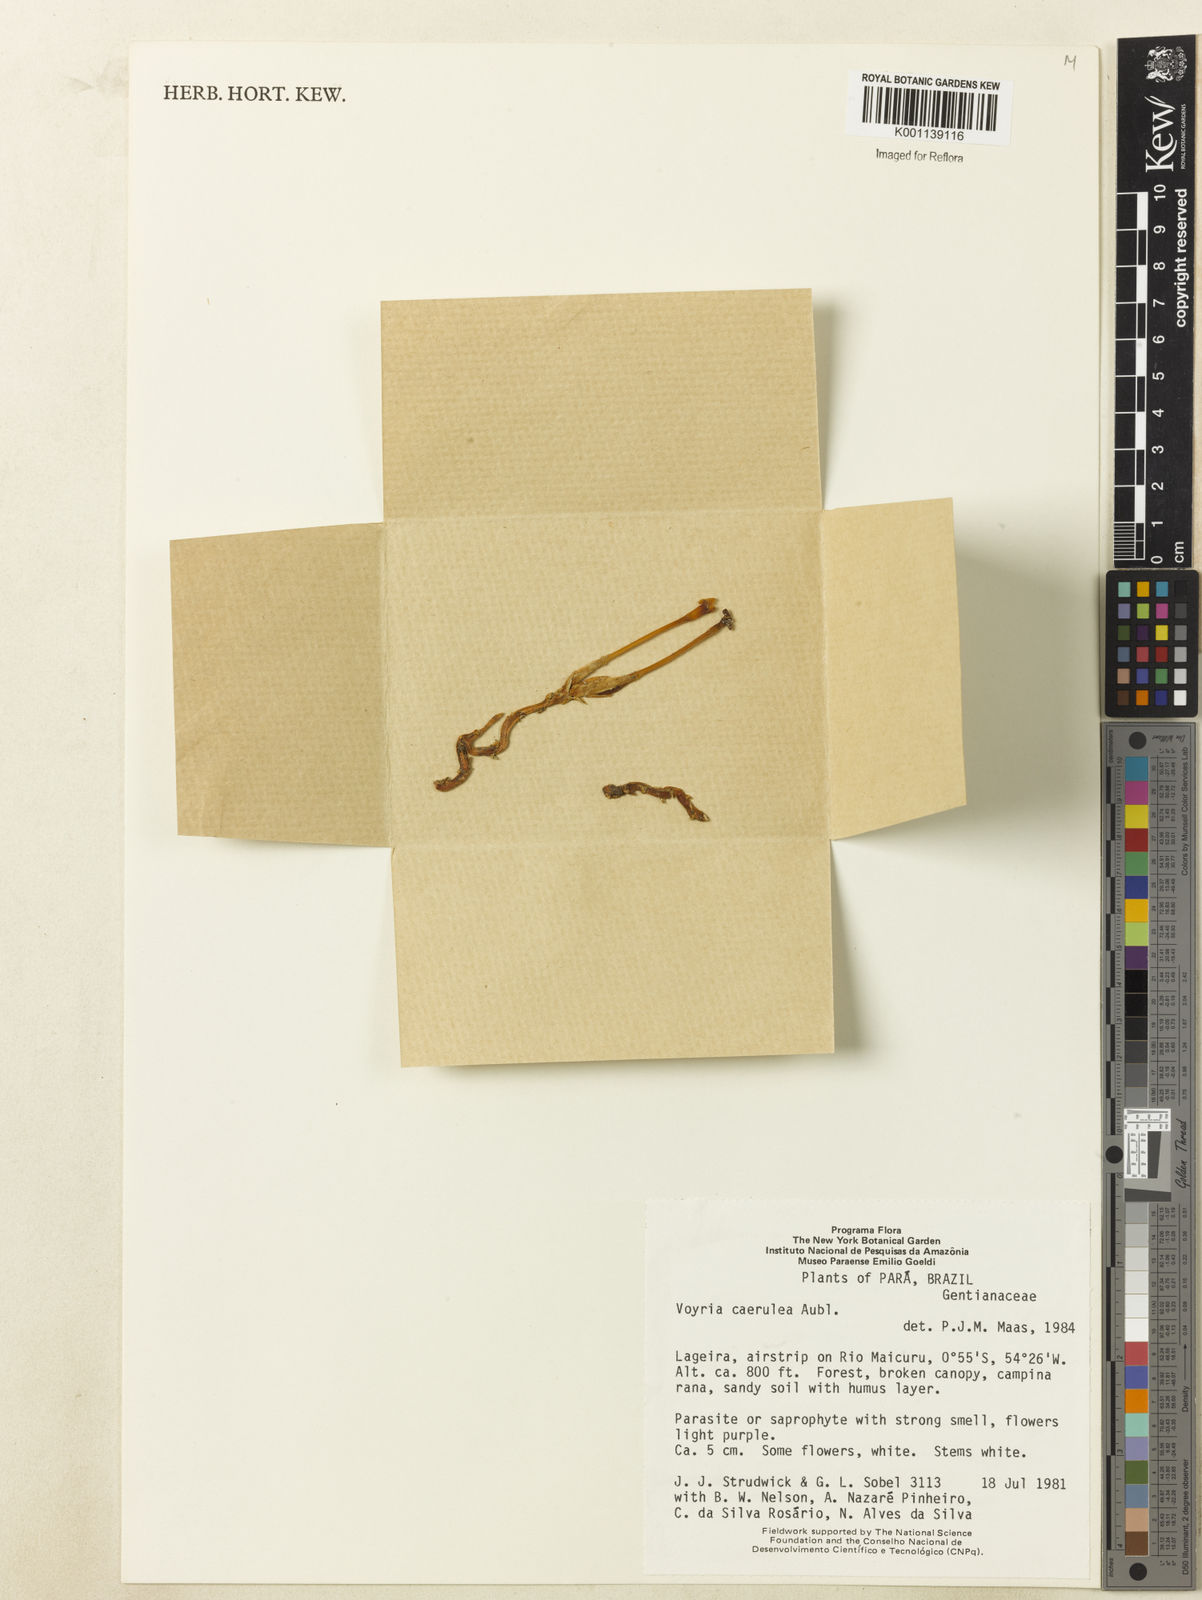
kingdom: Plantae
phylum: Tracheophyta
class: Magnoliopsida
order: Gentianales
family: Gentianaceae
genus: Voyria
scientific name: Voyria caerulea
